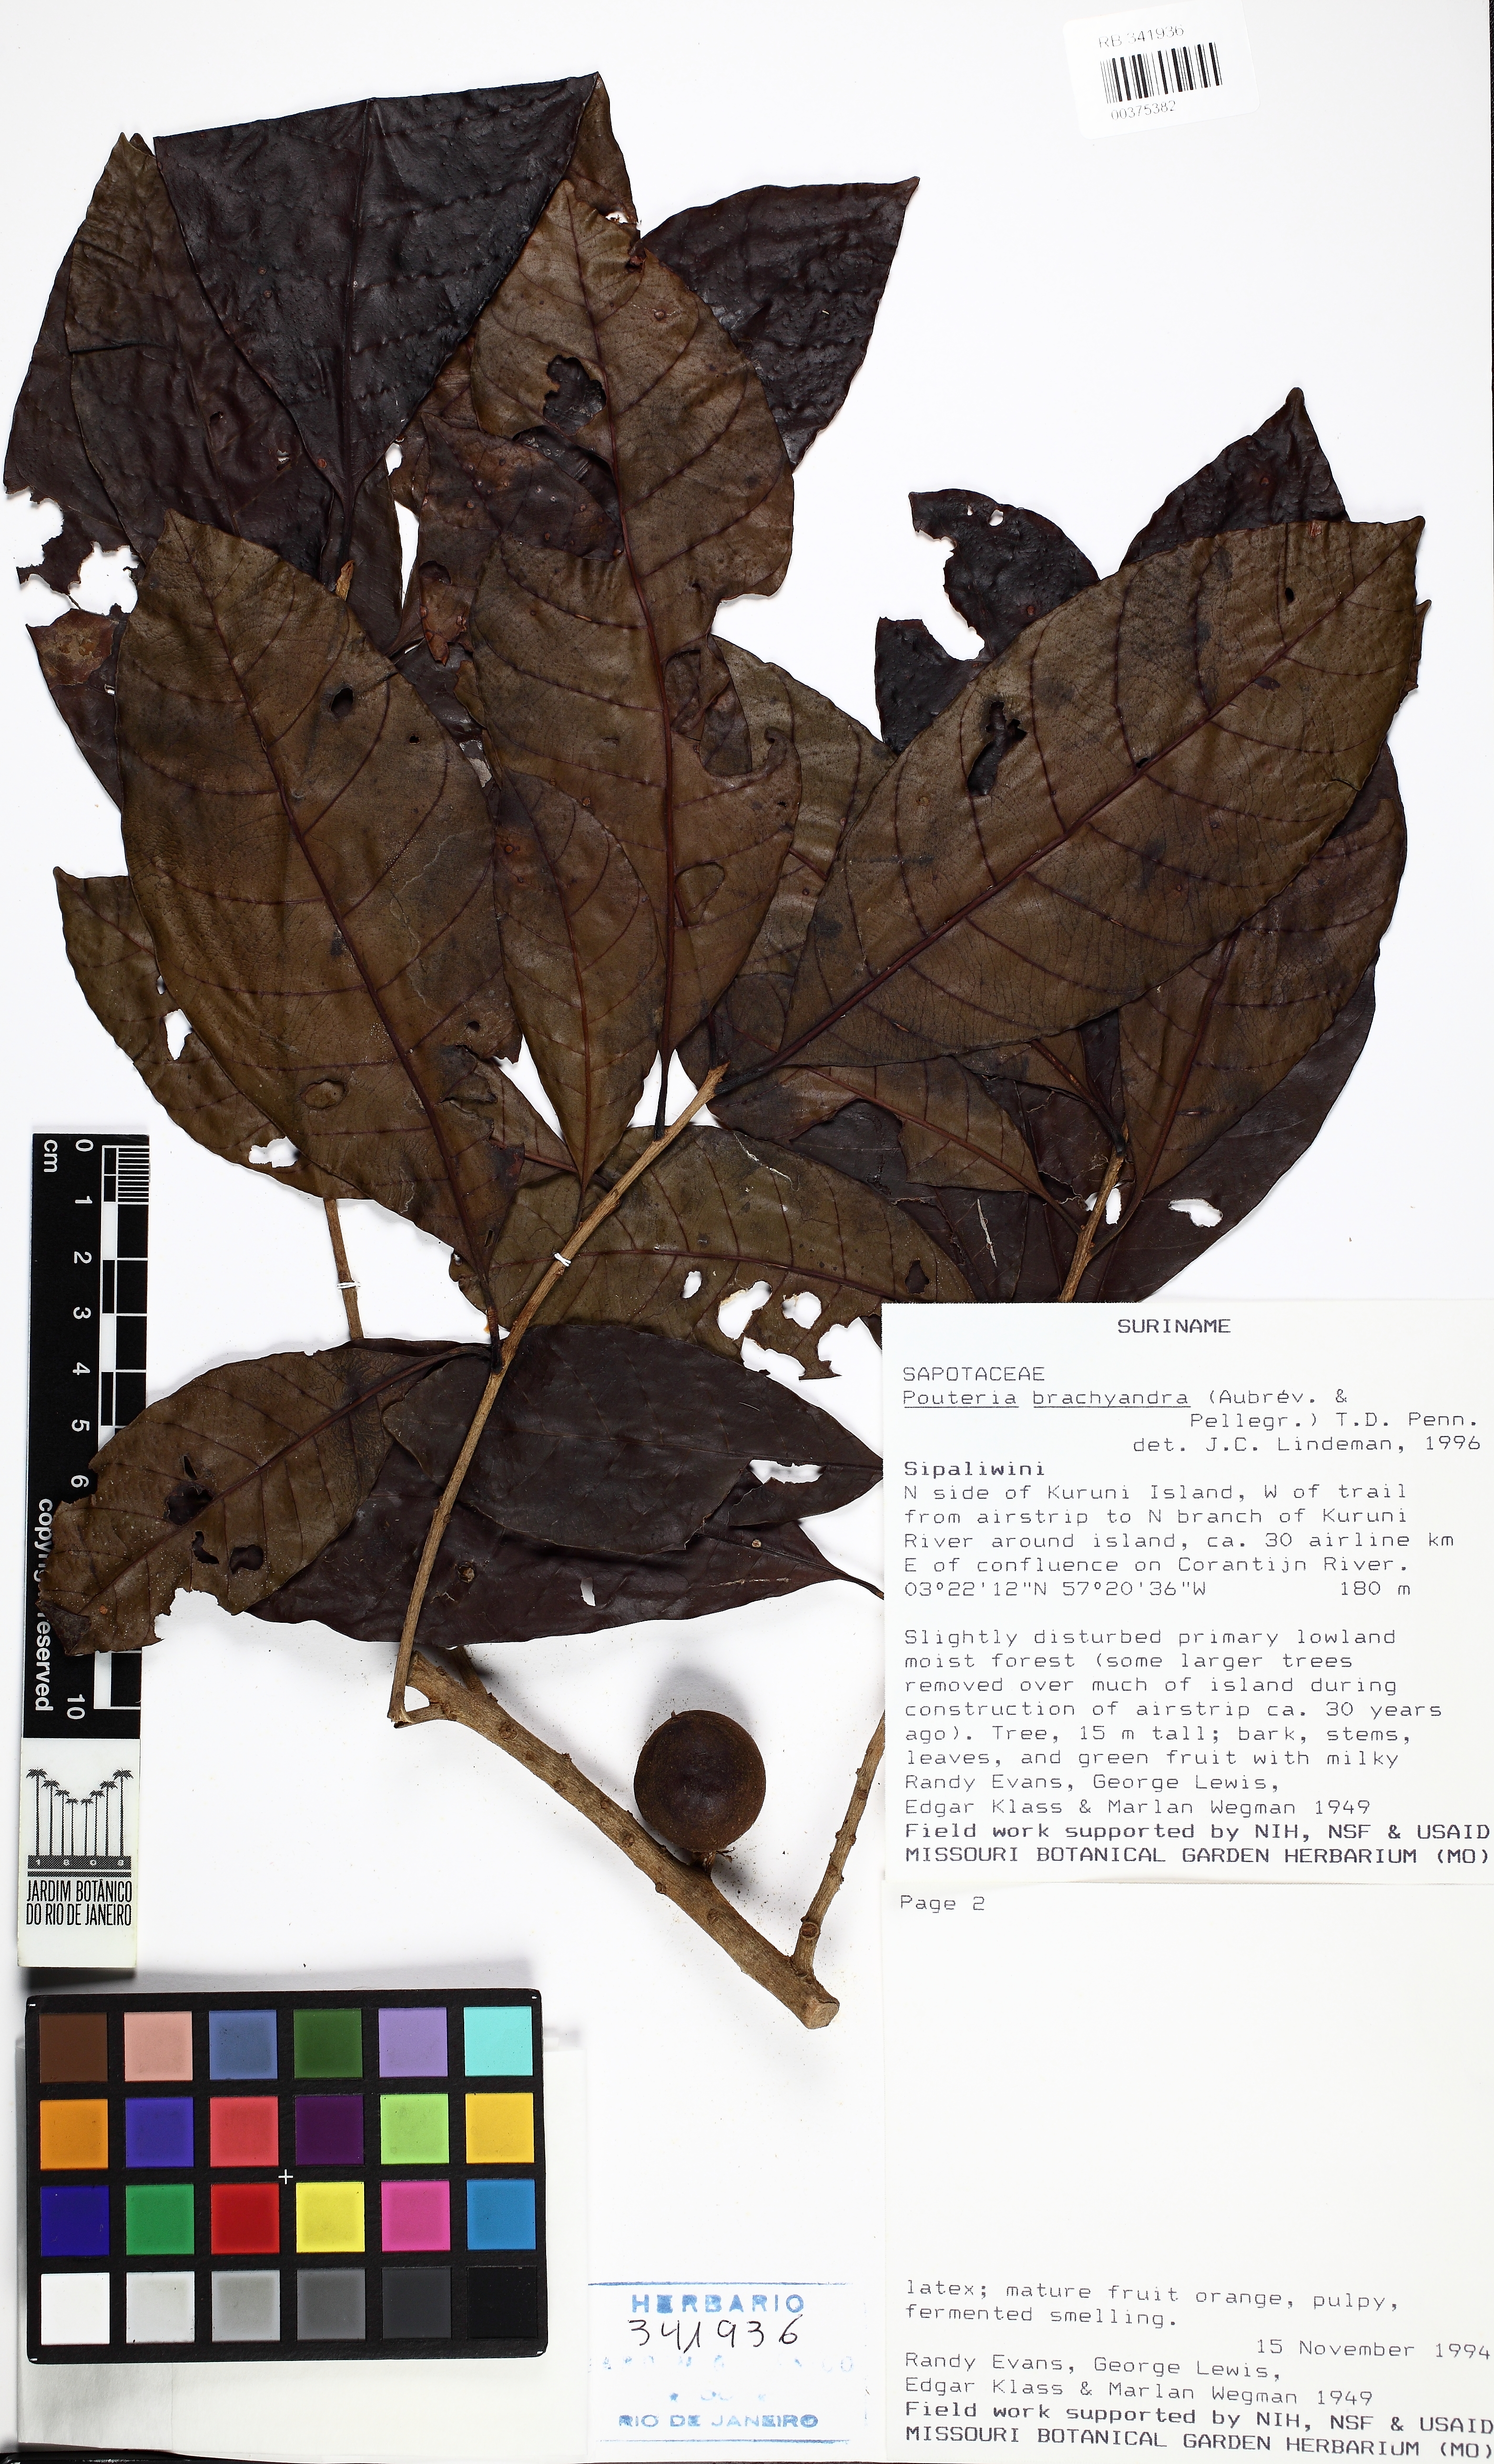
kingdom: Plantae
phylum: Tracheophyta
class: Magnoliopsida
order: Ericales
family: Sapotaceae
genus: Pouteria
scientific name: Pouteria brachyandra
